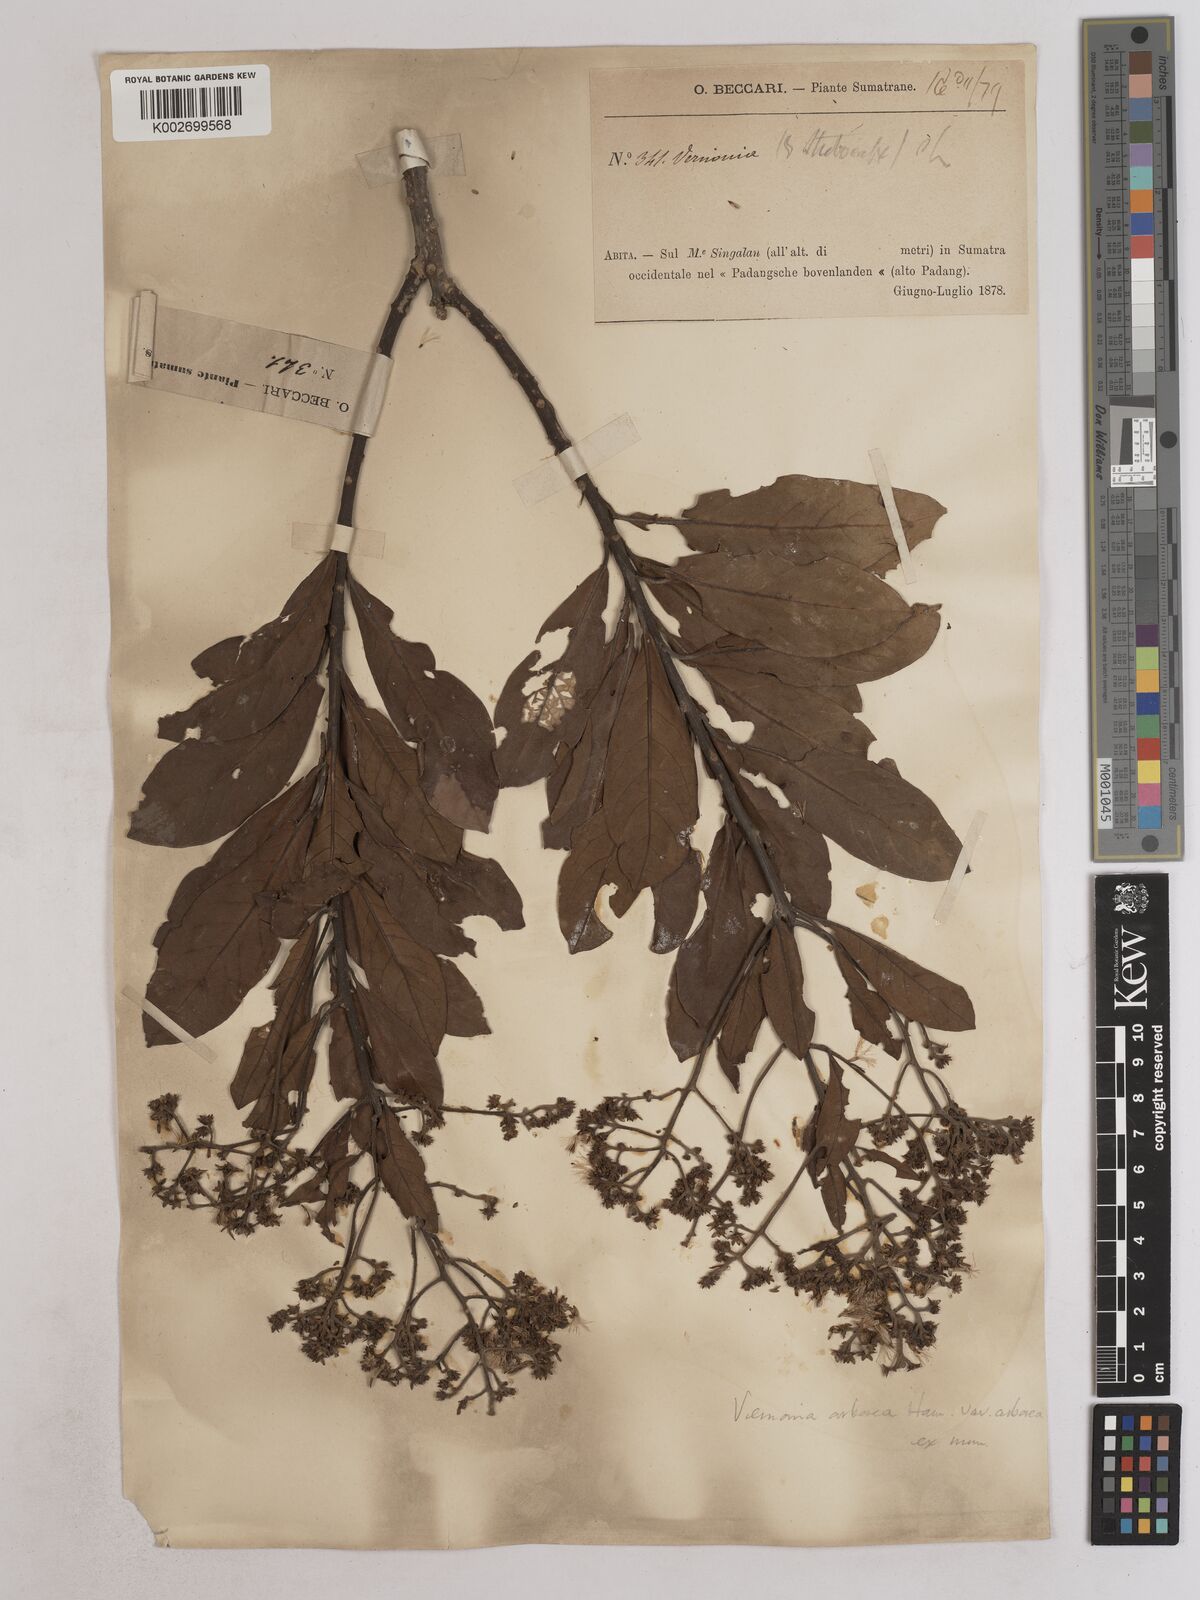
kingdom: Plantae
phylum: Tracheophyta
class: Magnoliopsida
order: Asterales
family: Asteraceae
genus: Strobocalyx
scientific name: Strobocalyx arborea
